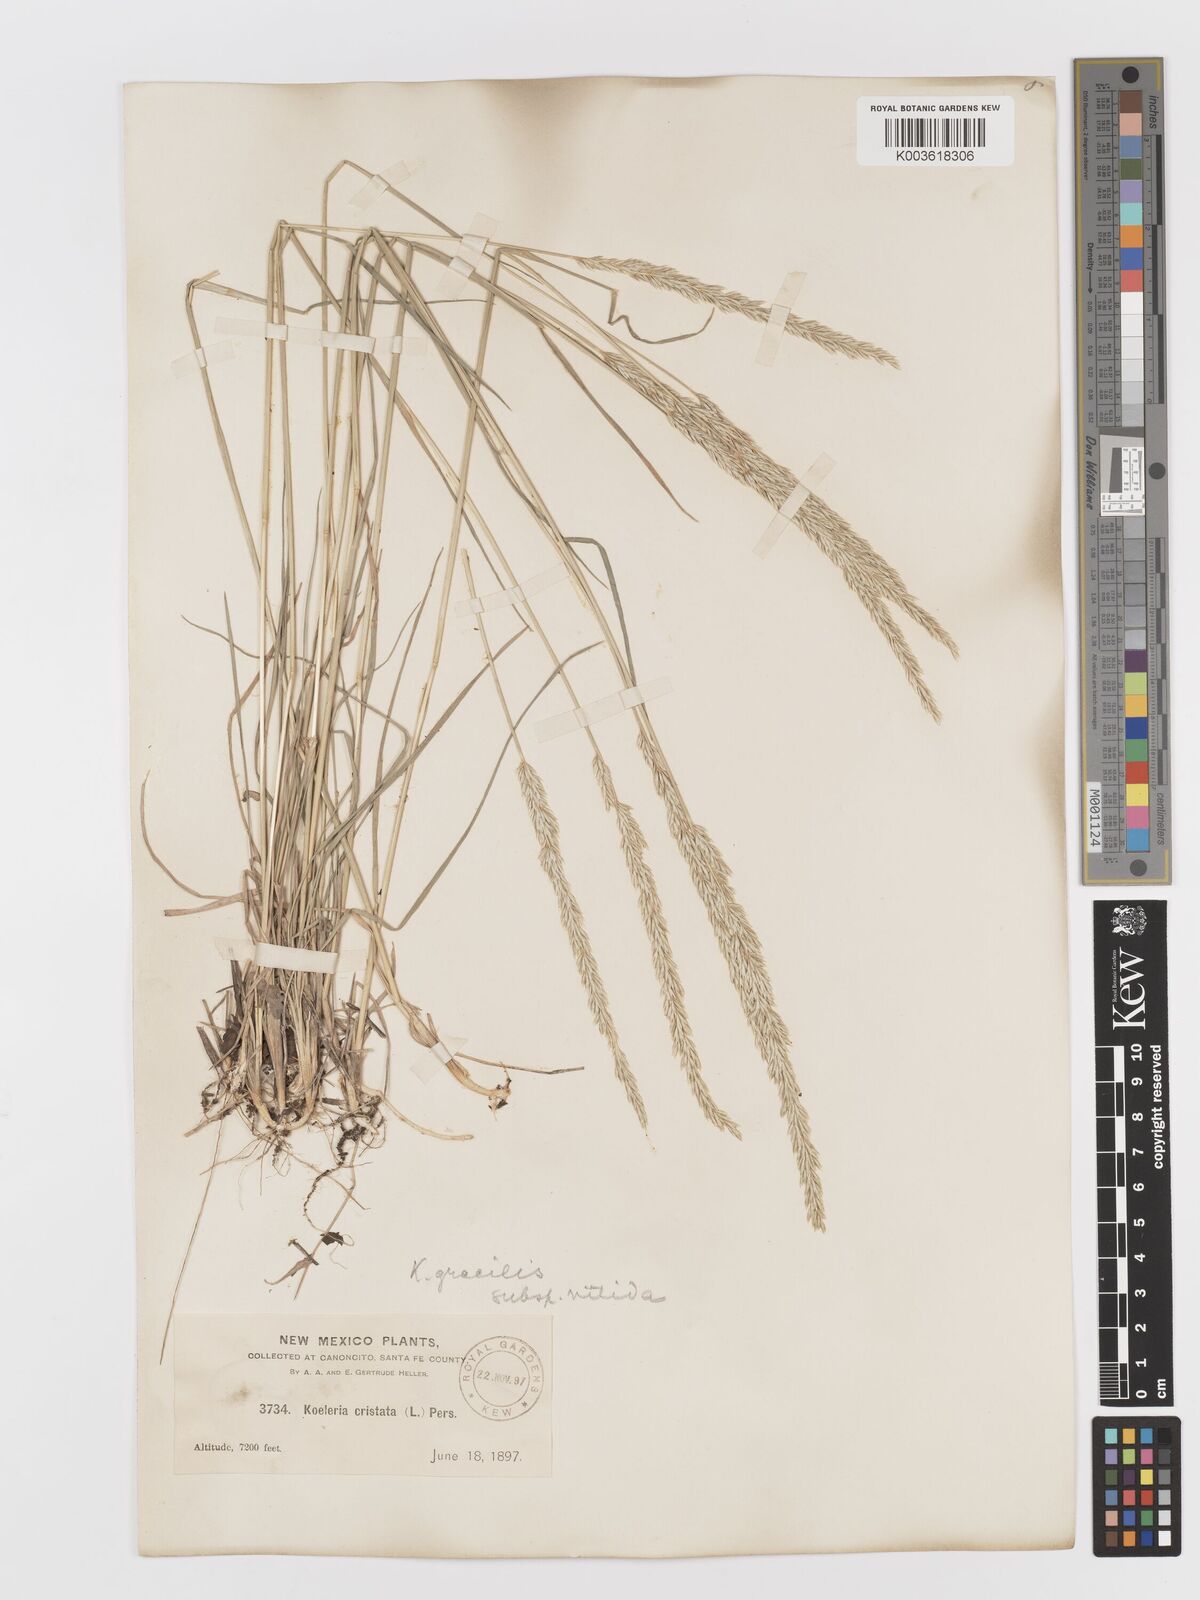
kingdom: Plantae
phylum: Tracheophyta
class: Liliopsida
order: Poales
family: Poaceae
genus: Koeleria
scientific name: Koeleria macrantha
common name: Crested hair-grass
